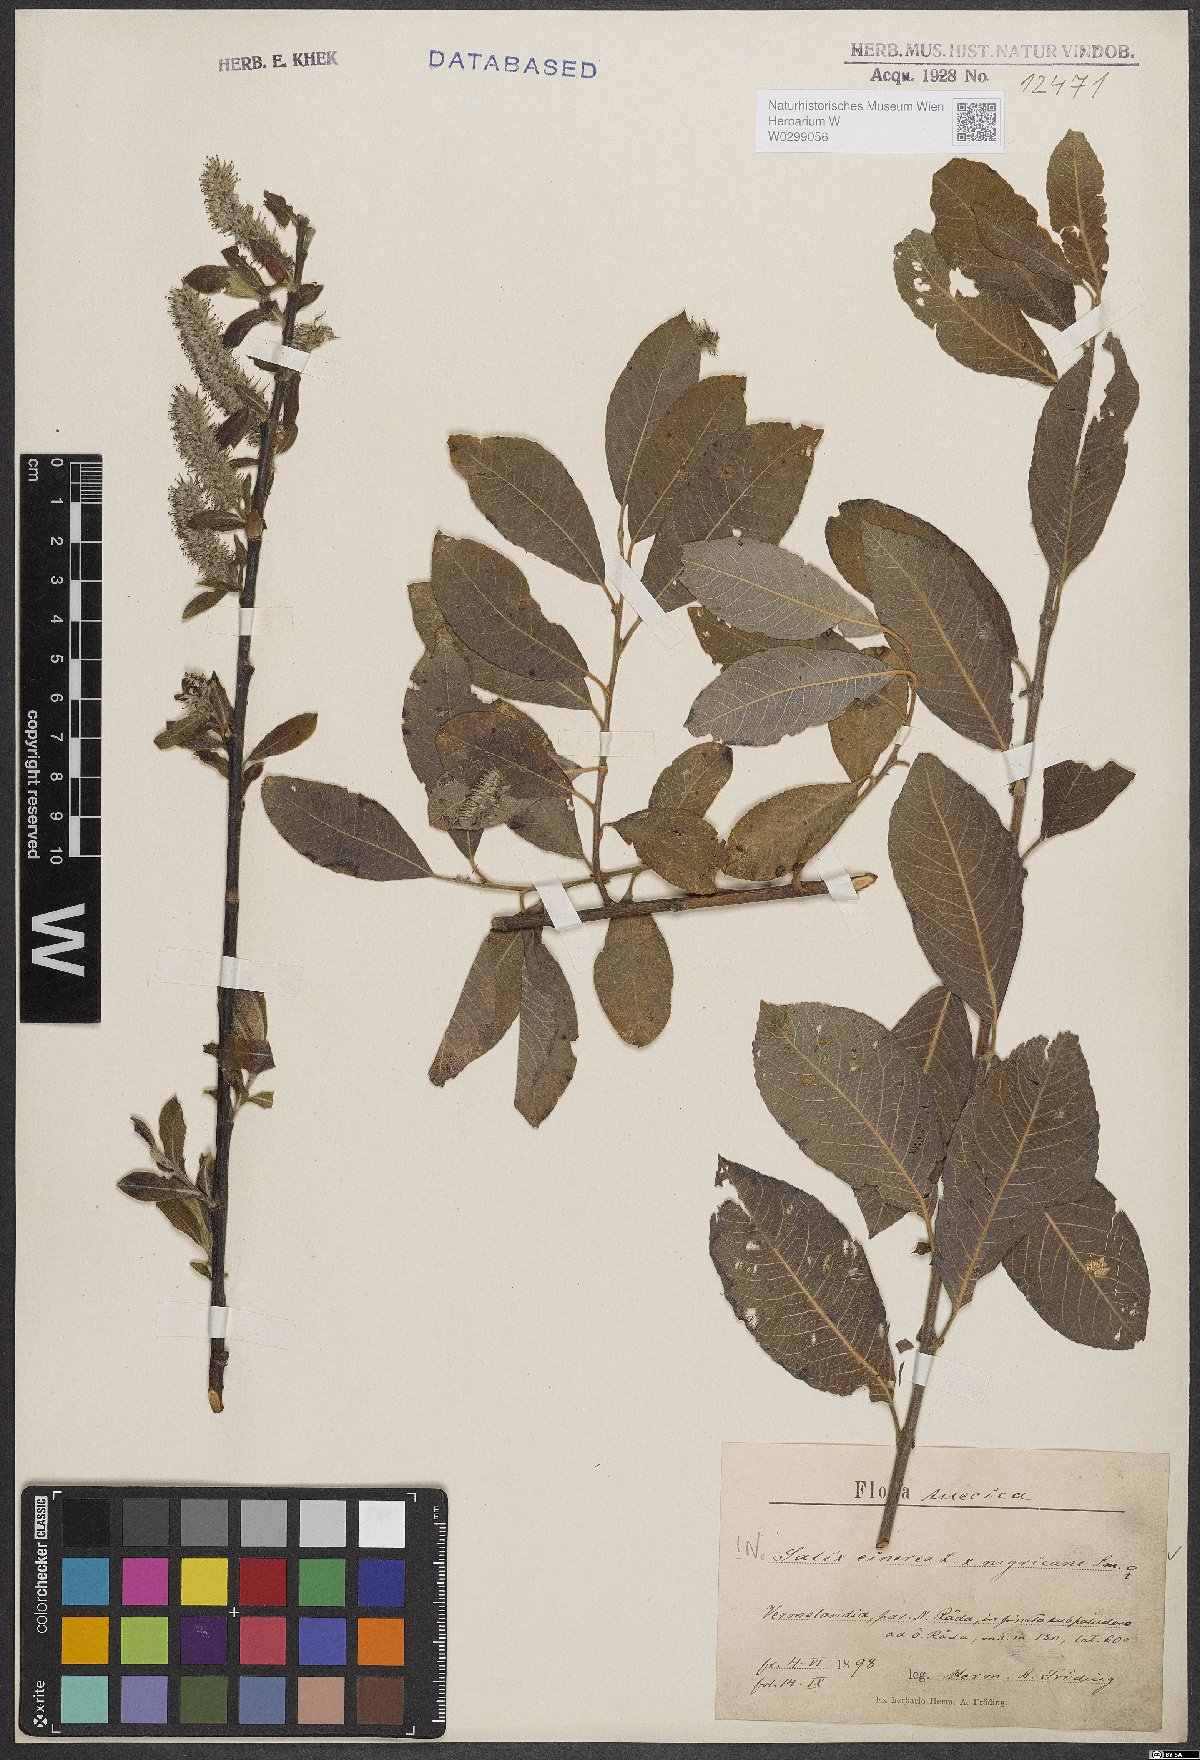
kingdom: Plantae
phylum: Tracheophyta
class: Magnoliopsida
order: Malpighiales
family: Salicaceae
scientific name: Salicaceae
